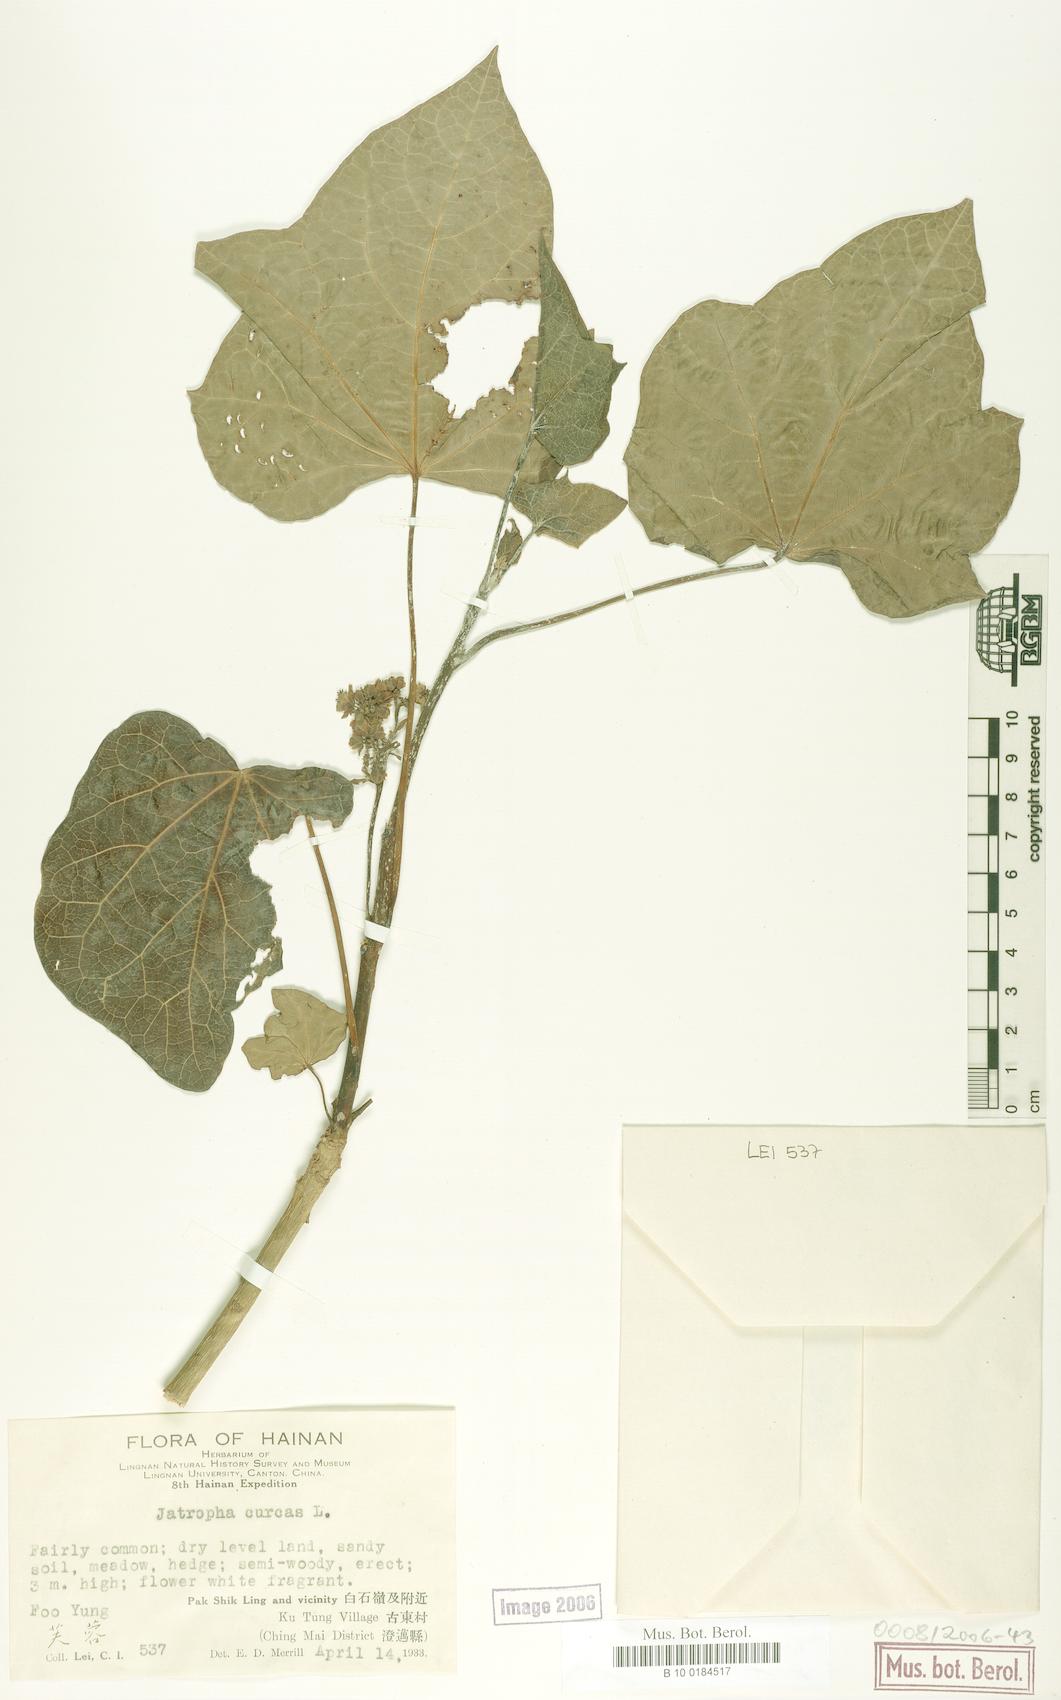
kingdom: Plantae
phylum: Tracheophyta
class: Magnoliopsida
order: Malpighiales
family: Euphorbiaceae
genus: Jatropha
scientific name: Jatropha curcas
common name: Barbados nut
